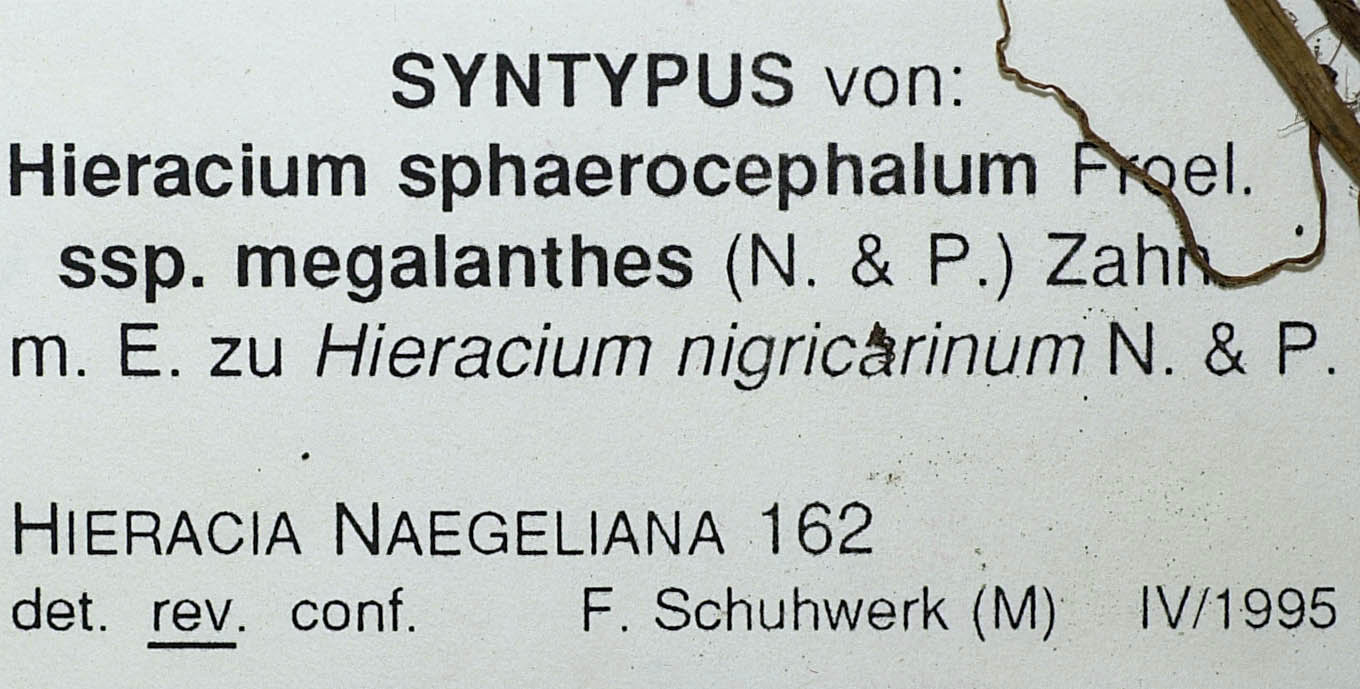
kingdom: Plantae
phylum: Tracheophyta
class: Magnoliopsida
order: Asterales
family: Asteraceae
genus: Pilosella
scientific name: Pilosella lathraea
